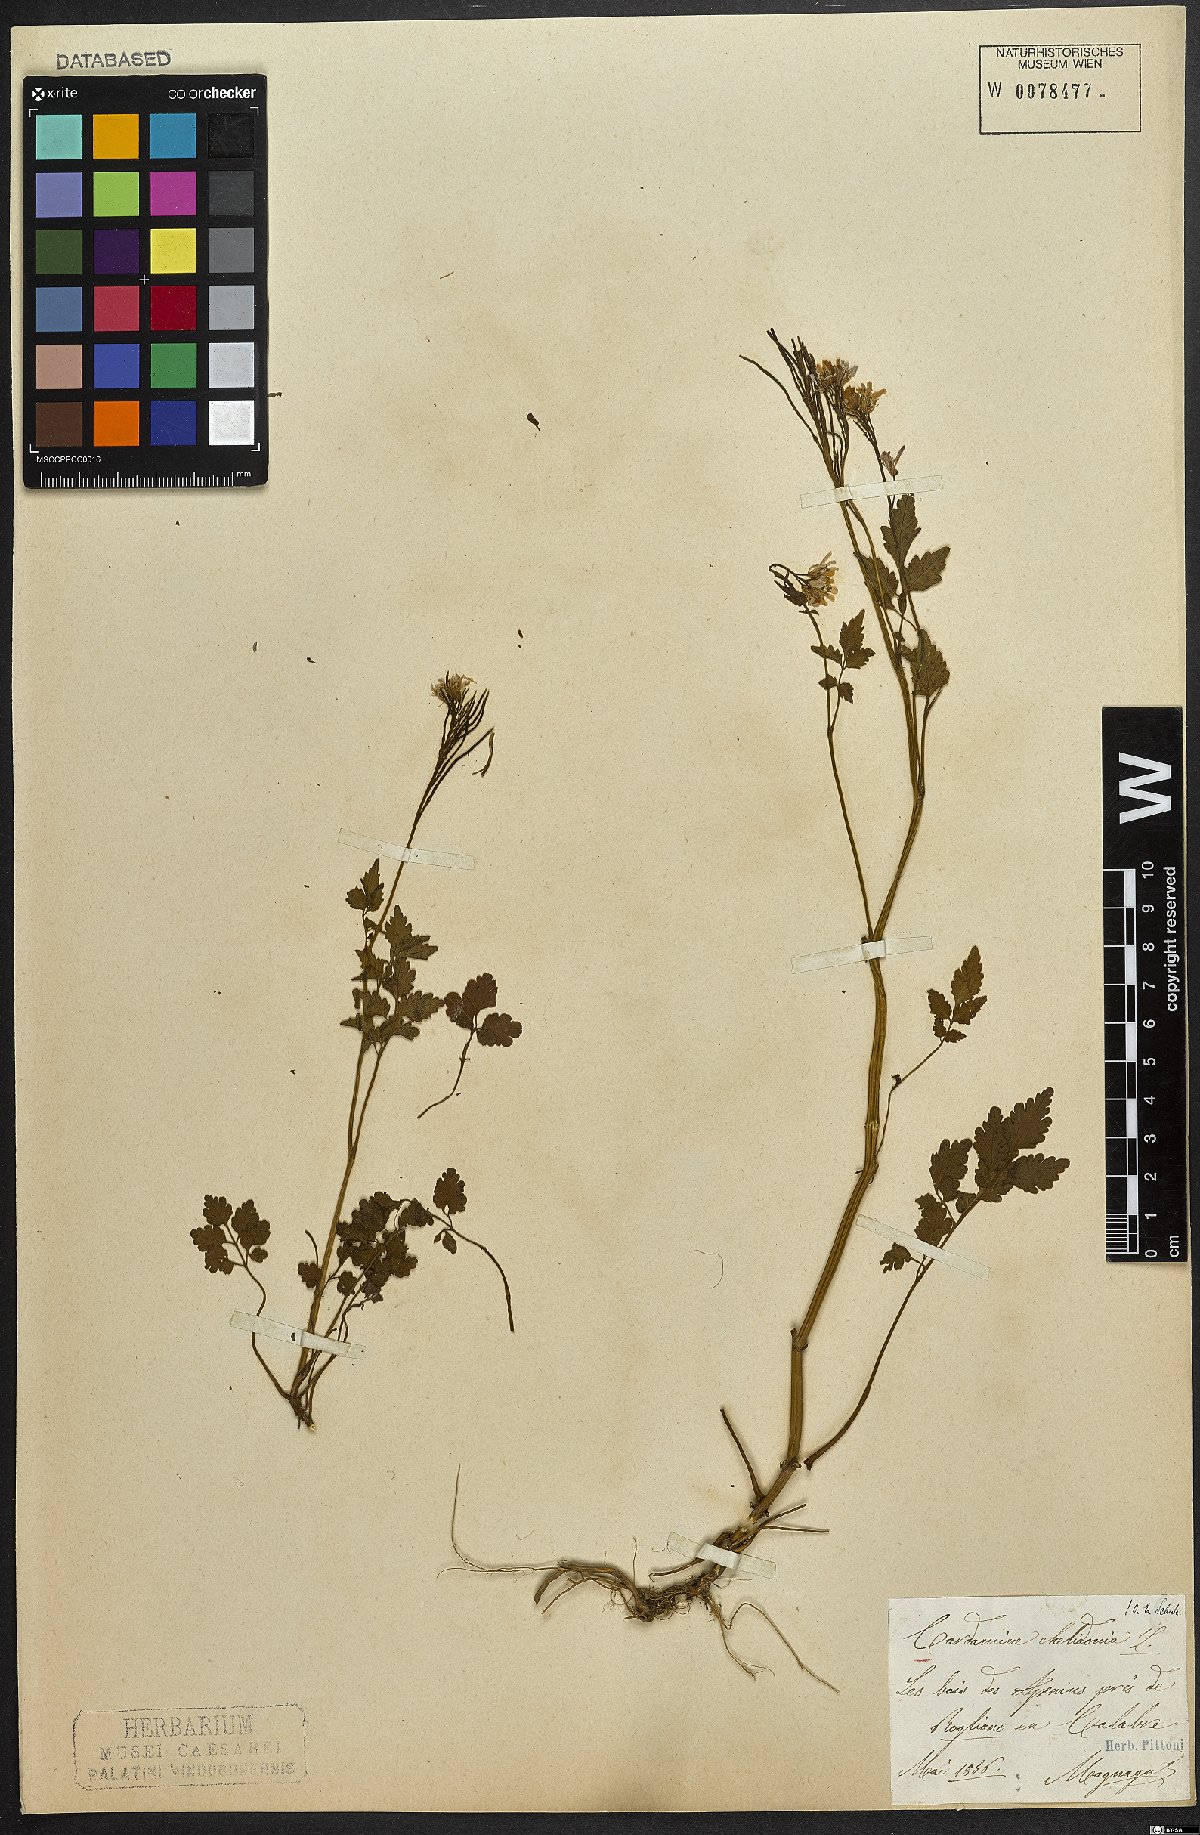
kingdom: Plantae
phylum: Tracheophyta
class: Magnoliopsida
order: Brassicales
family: Brassicaceae
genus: Cardamine
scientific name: Cardamine chelidonia
